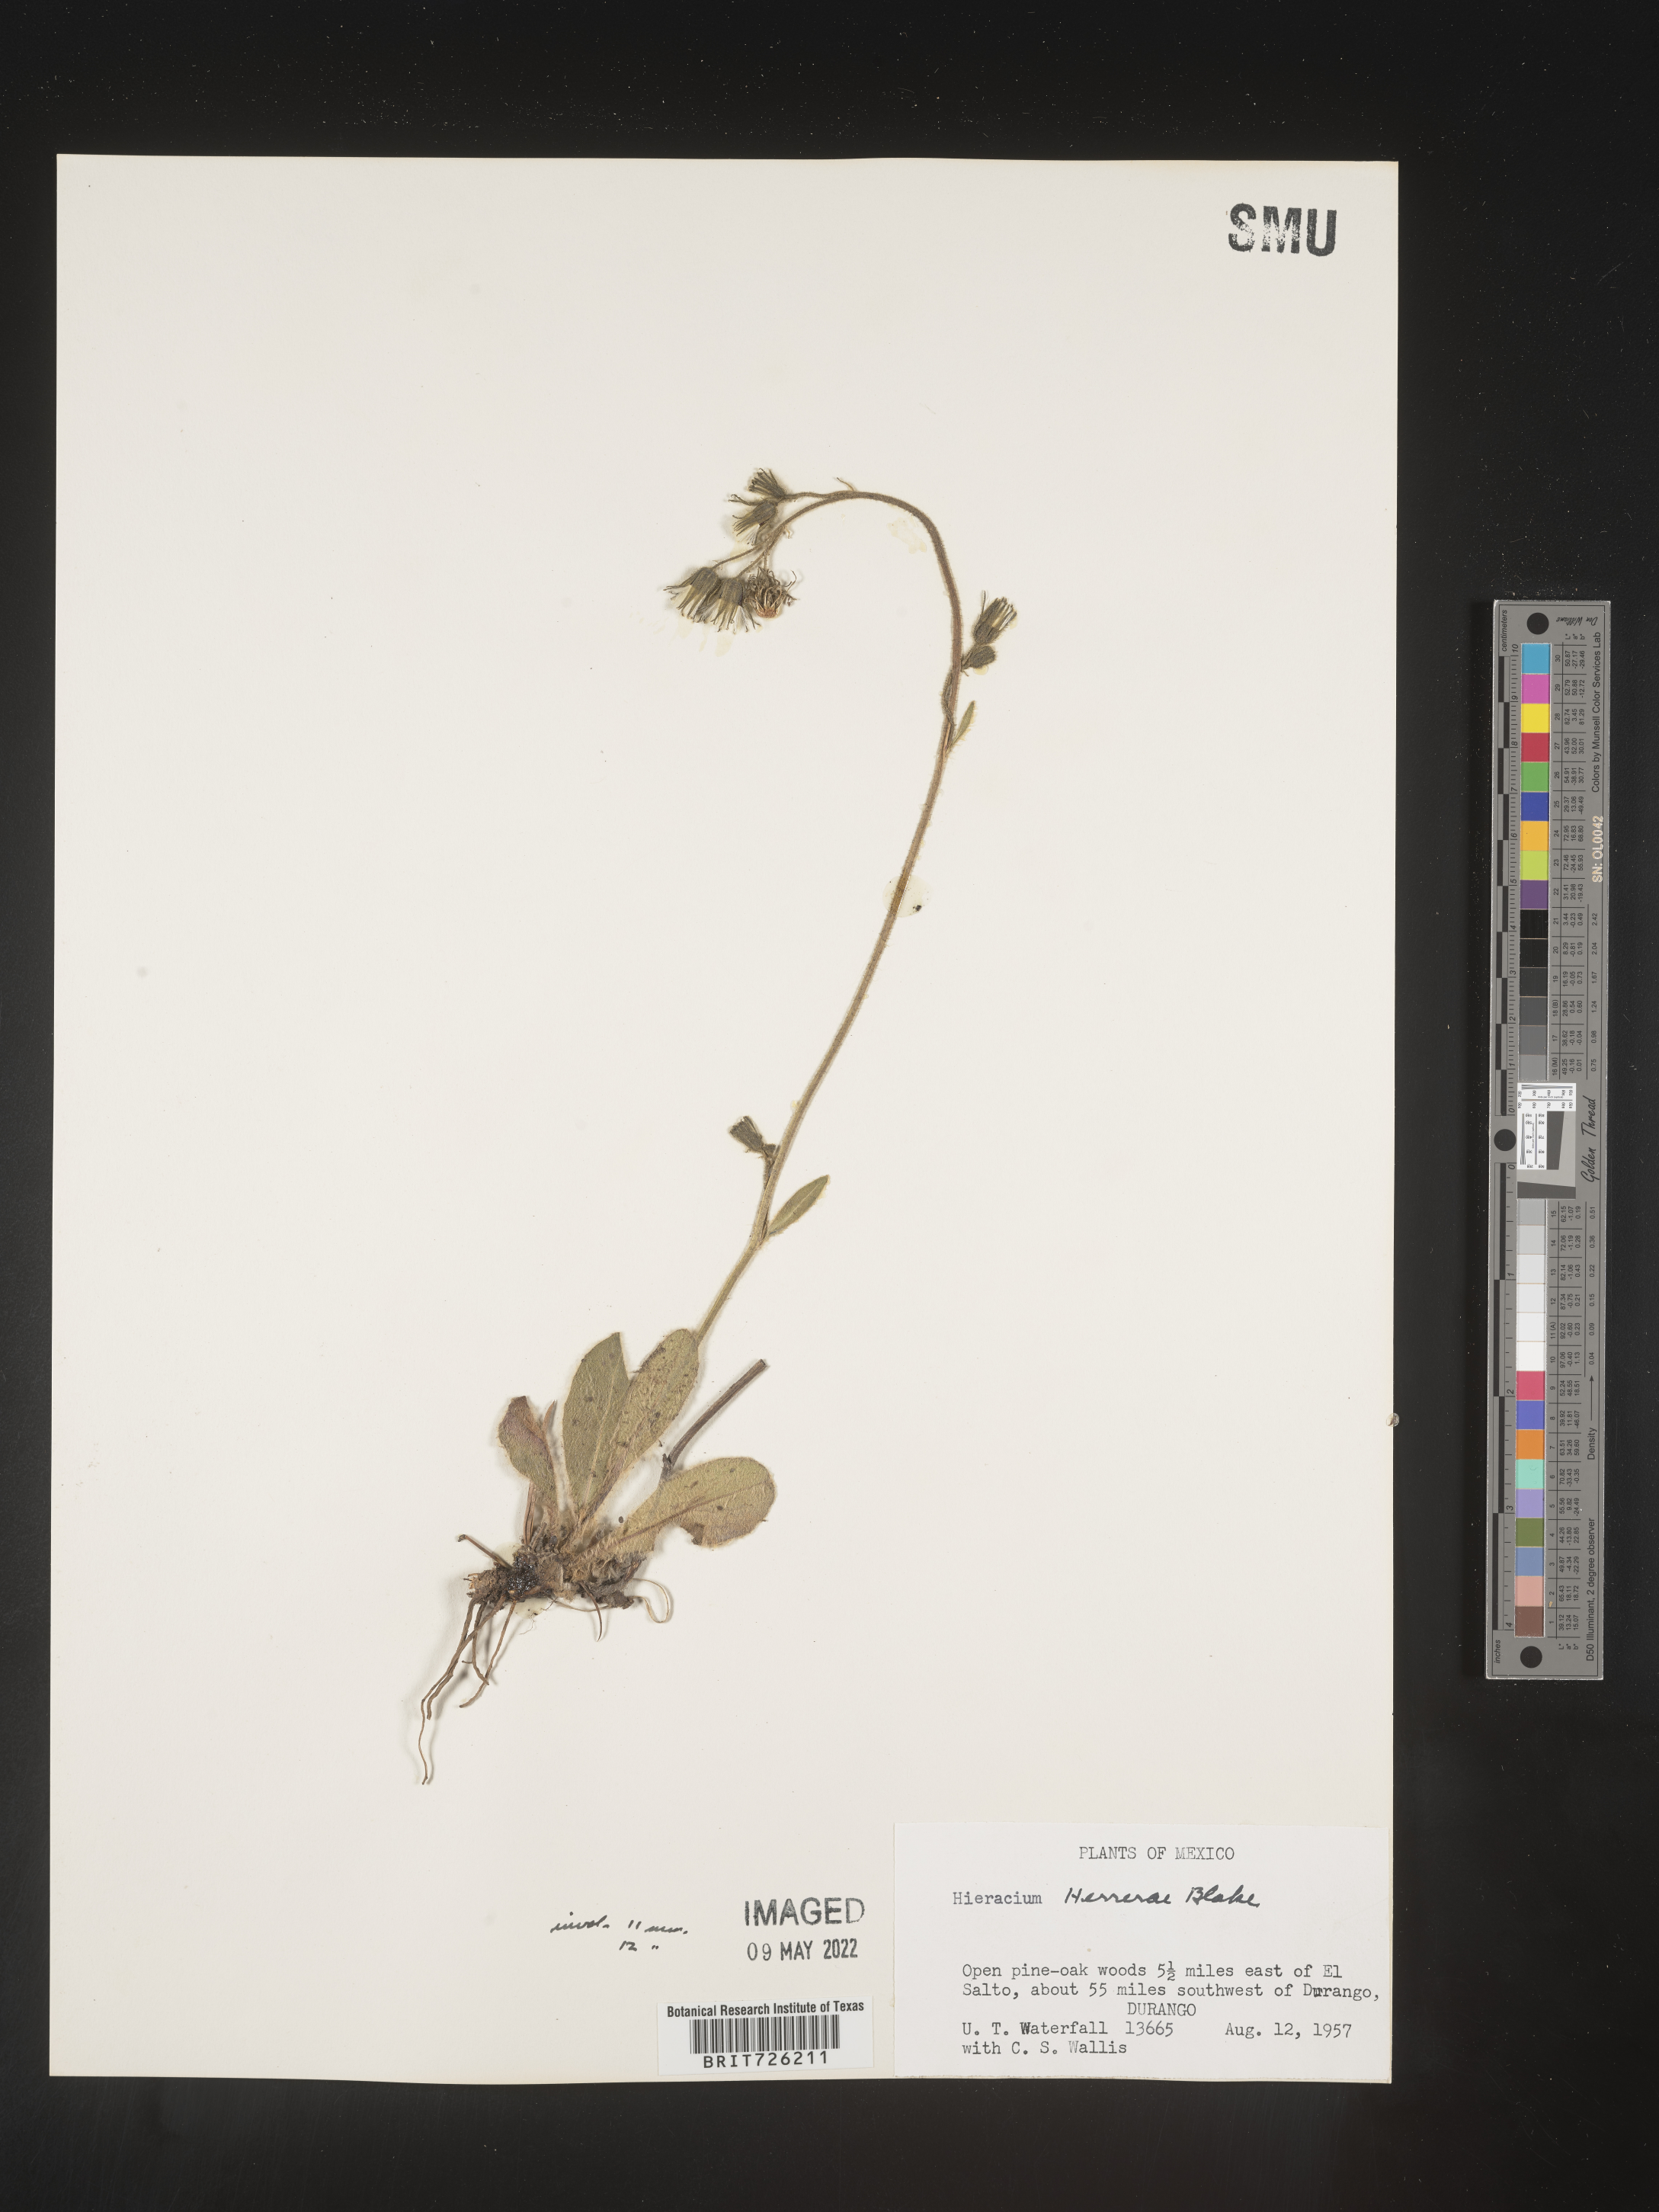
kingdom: Plantae
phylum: Tracheophyta
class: Magnoliopsida
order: Asterales
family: Asteraceae
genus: Hieracium
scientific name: Hieracium
